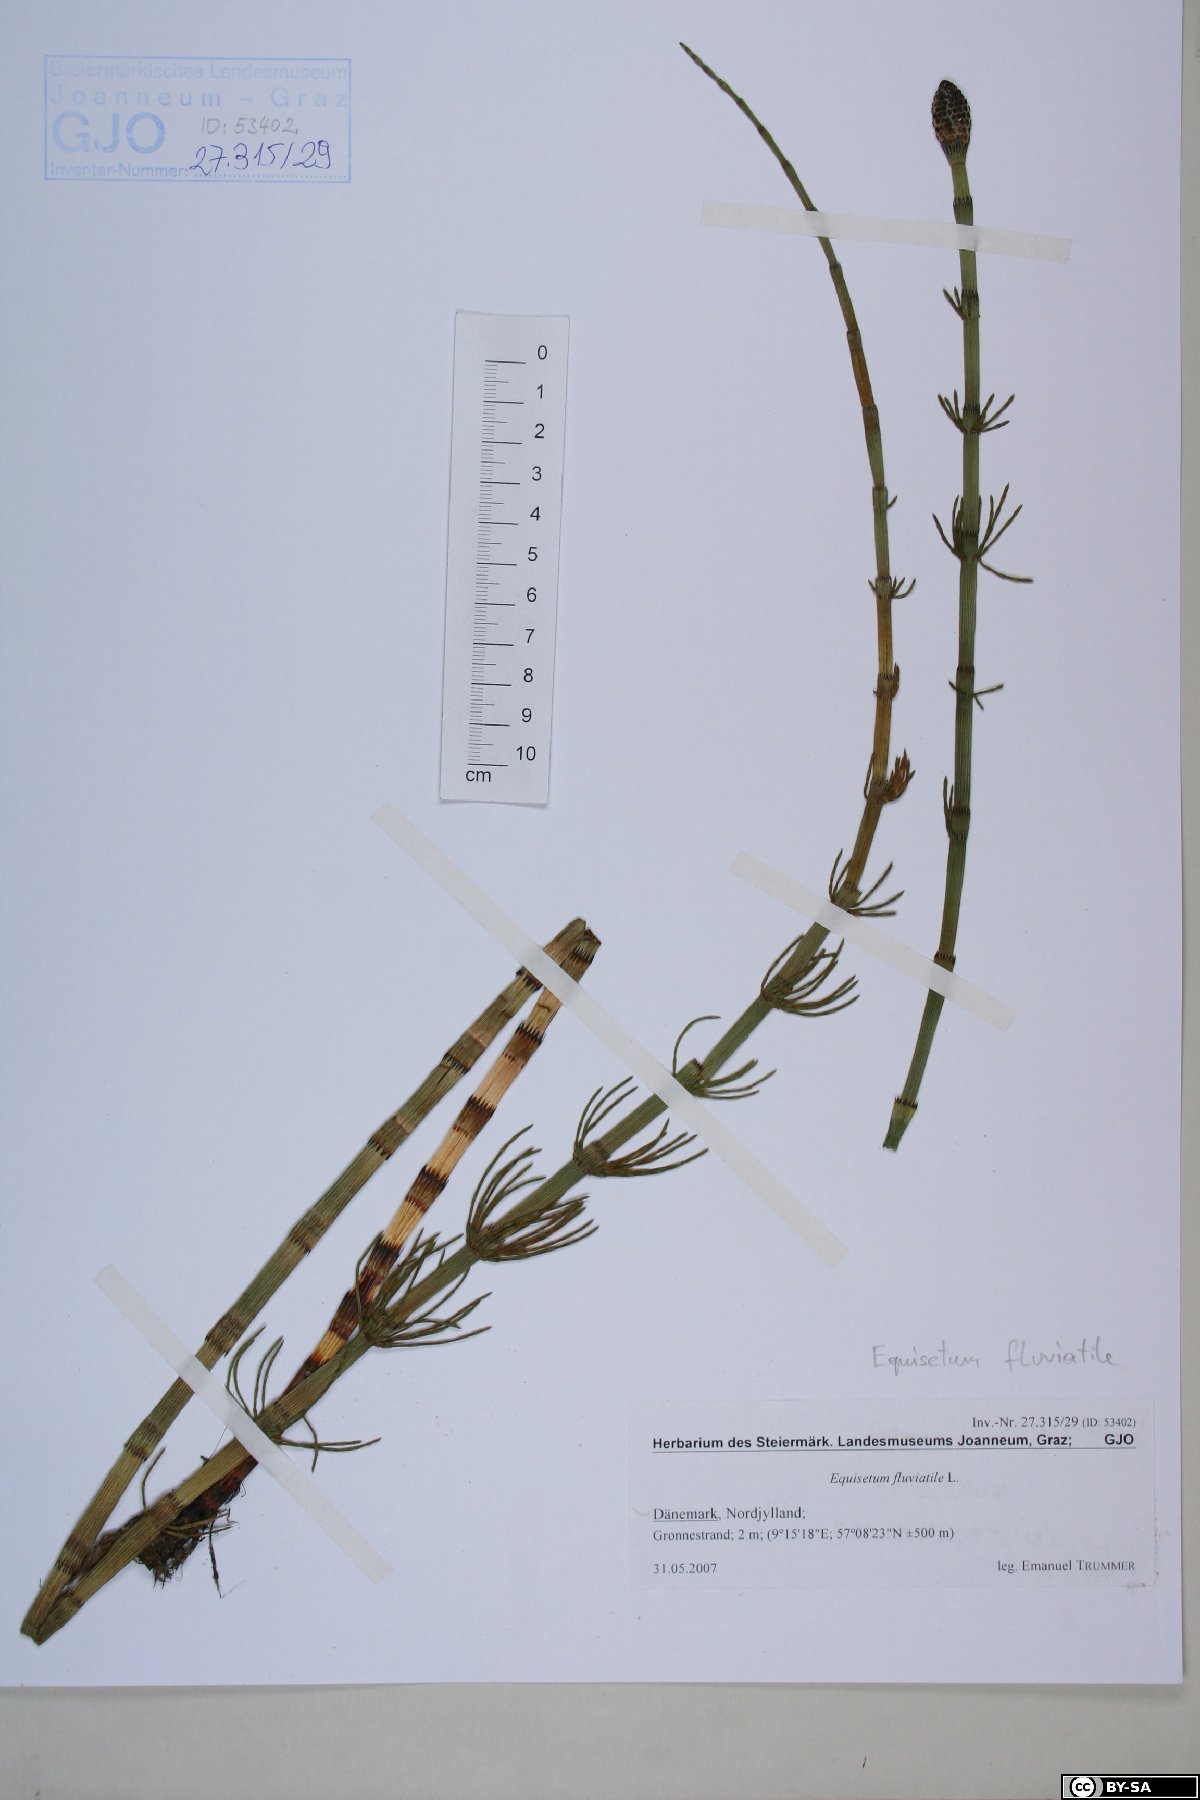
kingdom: Plantae
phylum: Tracheophyta
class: Polypodiopsida
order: Equisetales
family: Equisetaceae
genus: Equisetum
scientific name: Equisetum fluviatile
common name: Water horsetail
